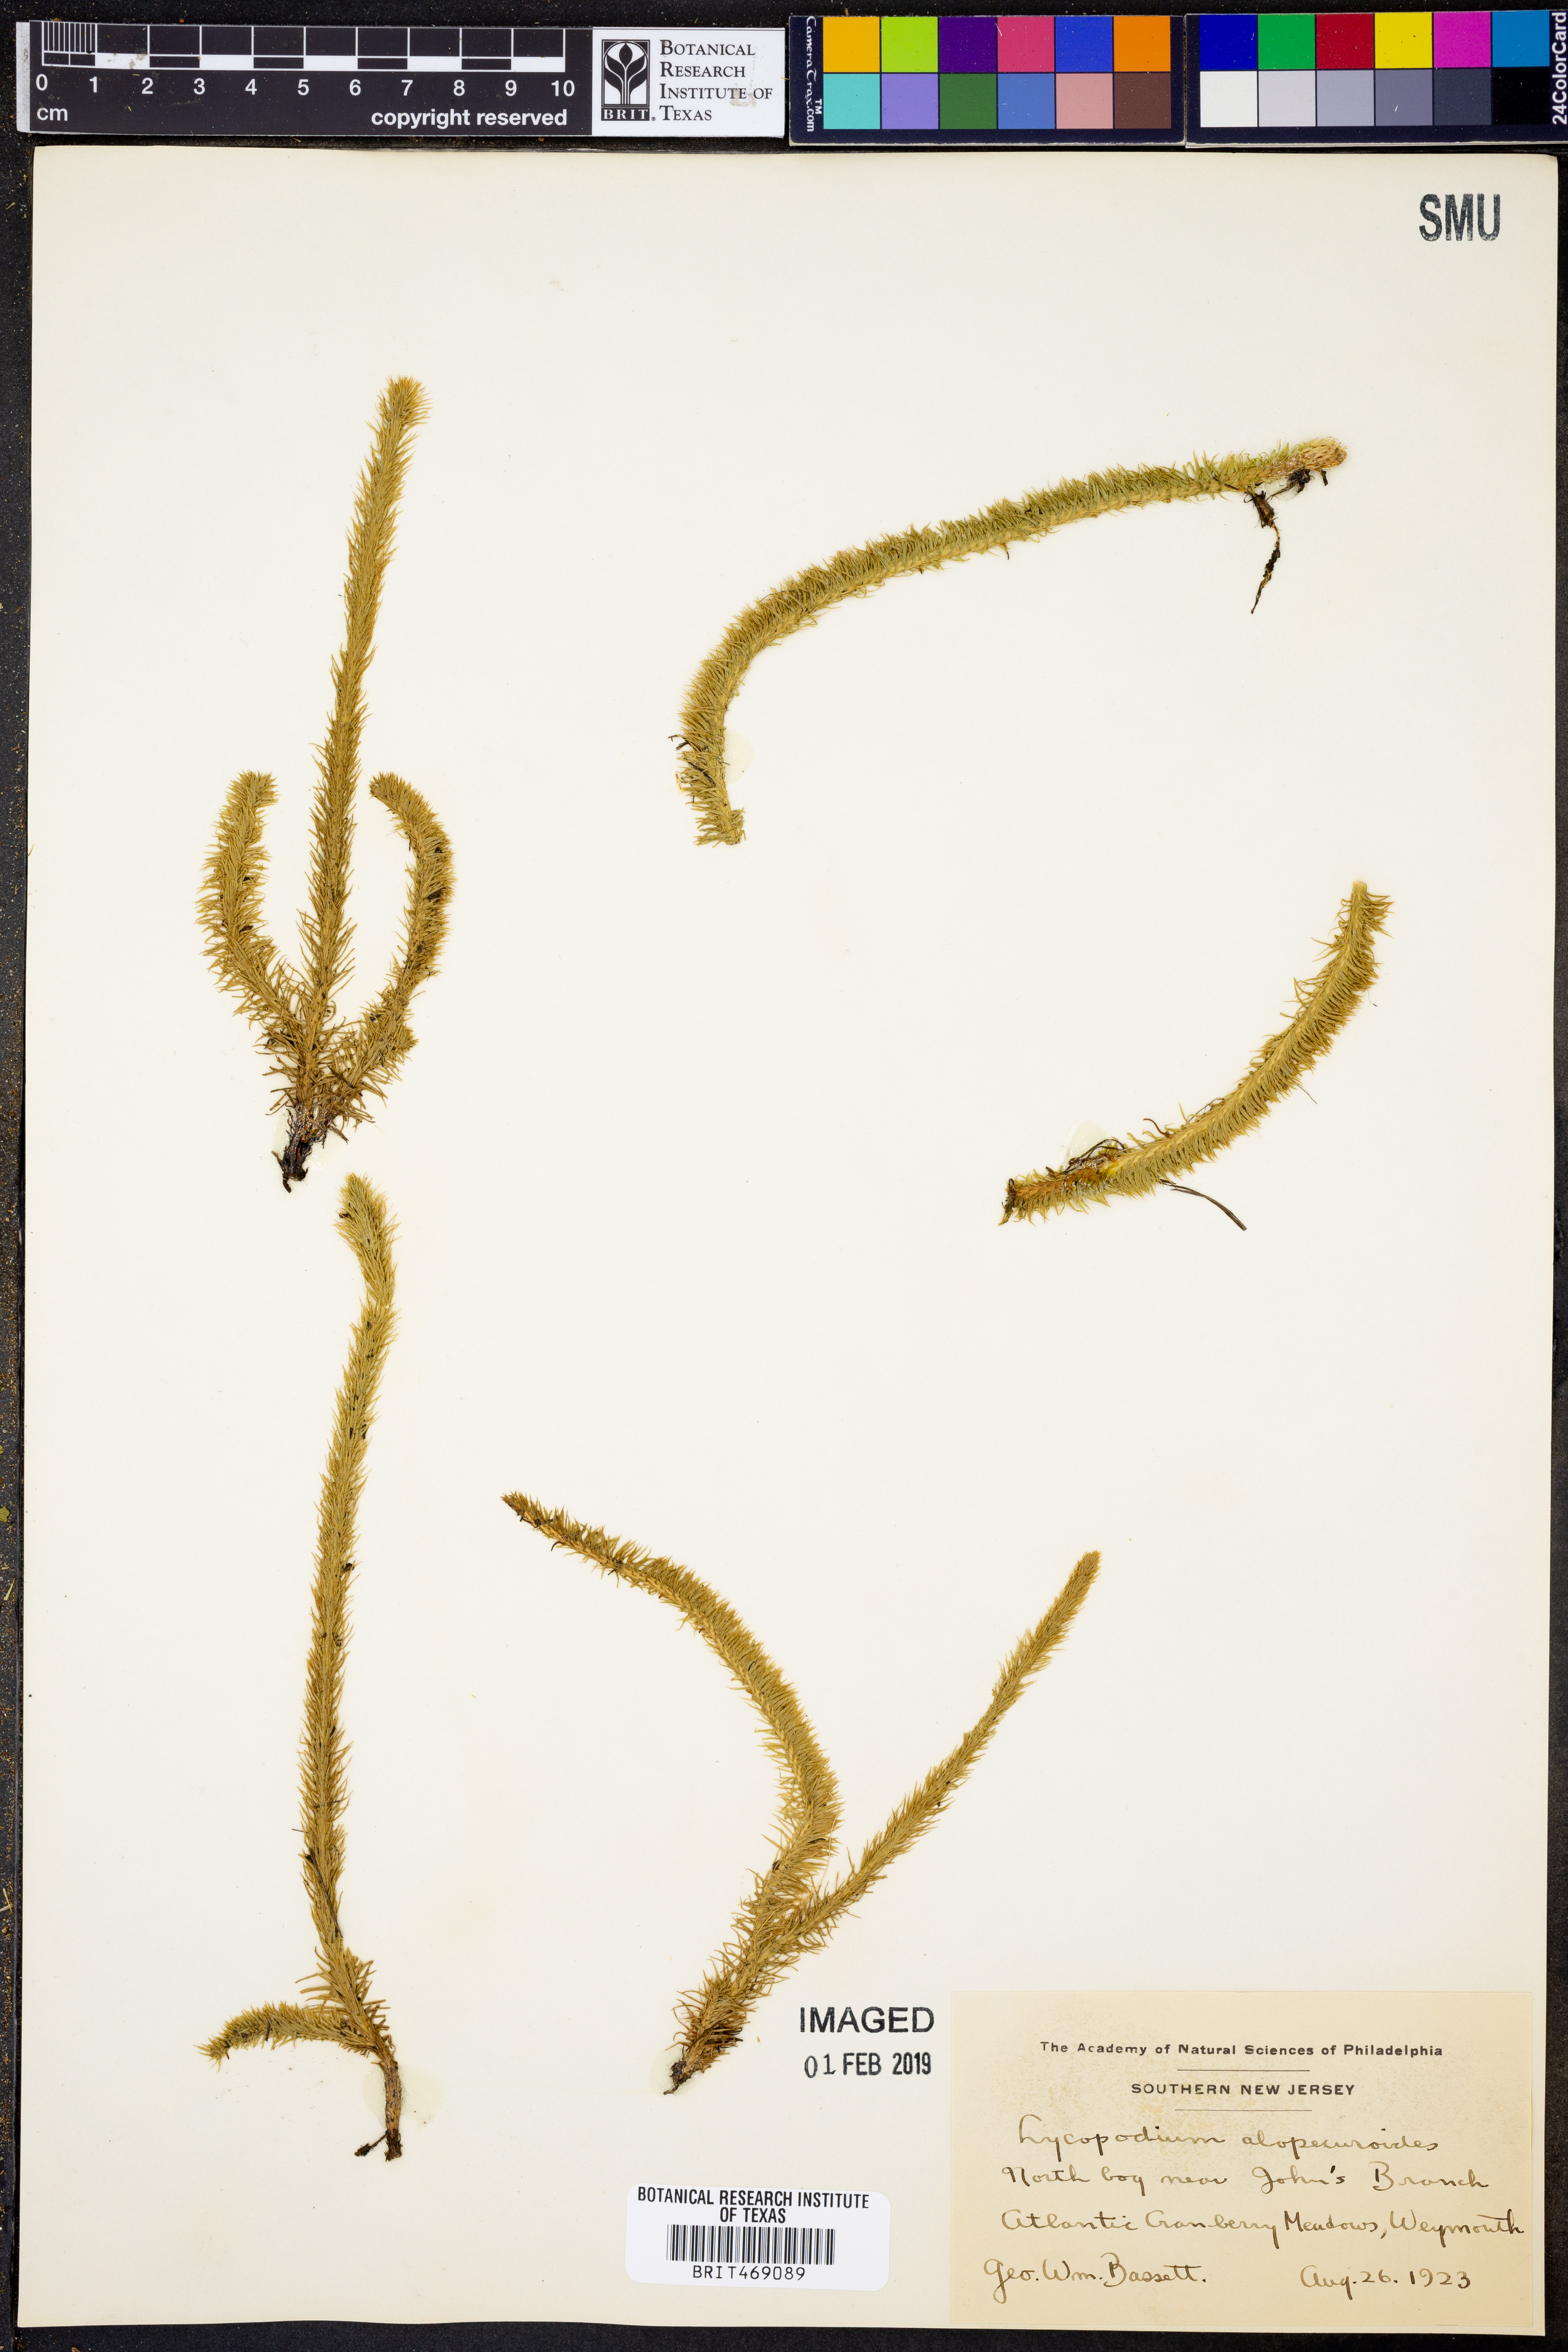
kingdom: Plantae
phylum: Tracheophyta
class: Lycopodiopsida
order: Lycopodiales
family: Lycopodiaceae
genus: Lycopodiella
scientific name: Lycopodiella alopecuroides
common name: Foxtail clubmoss
